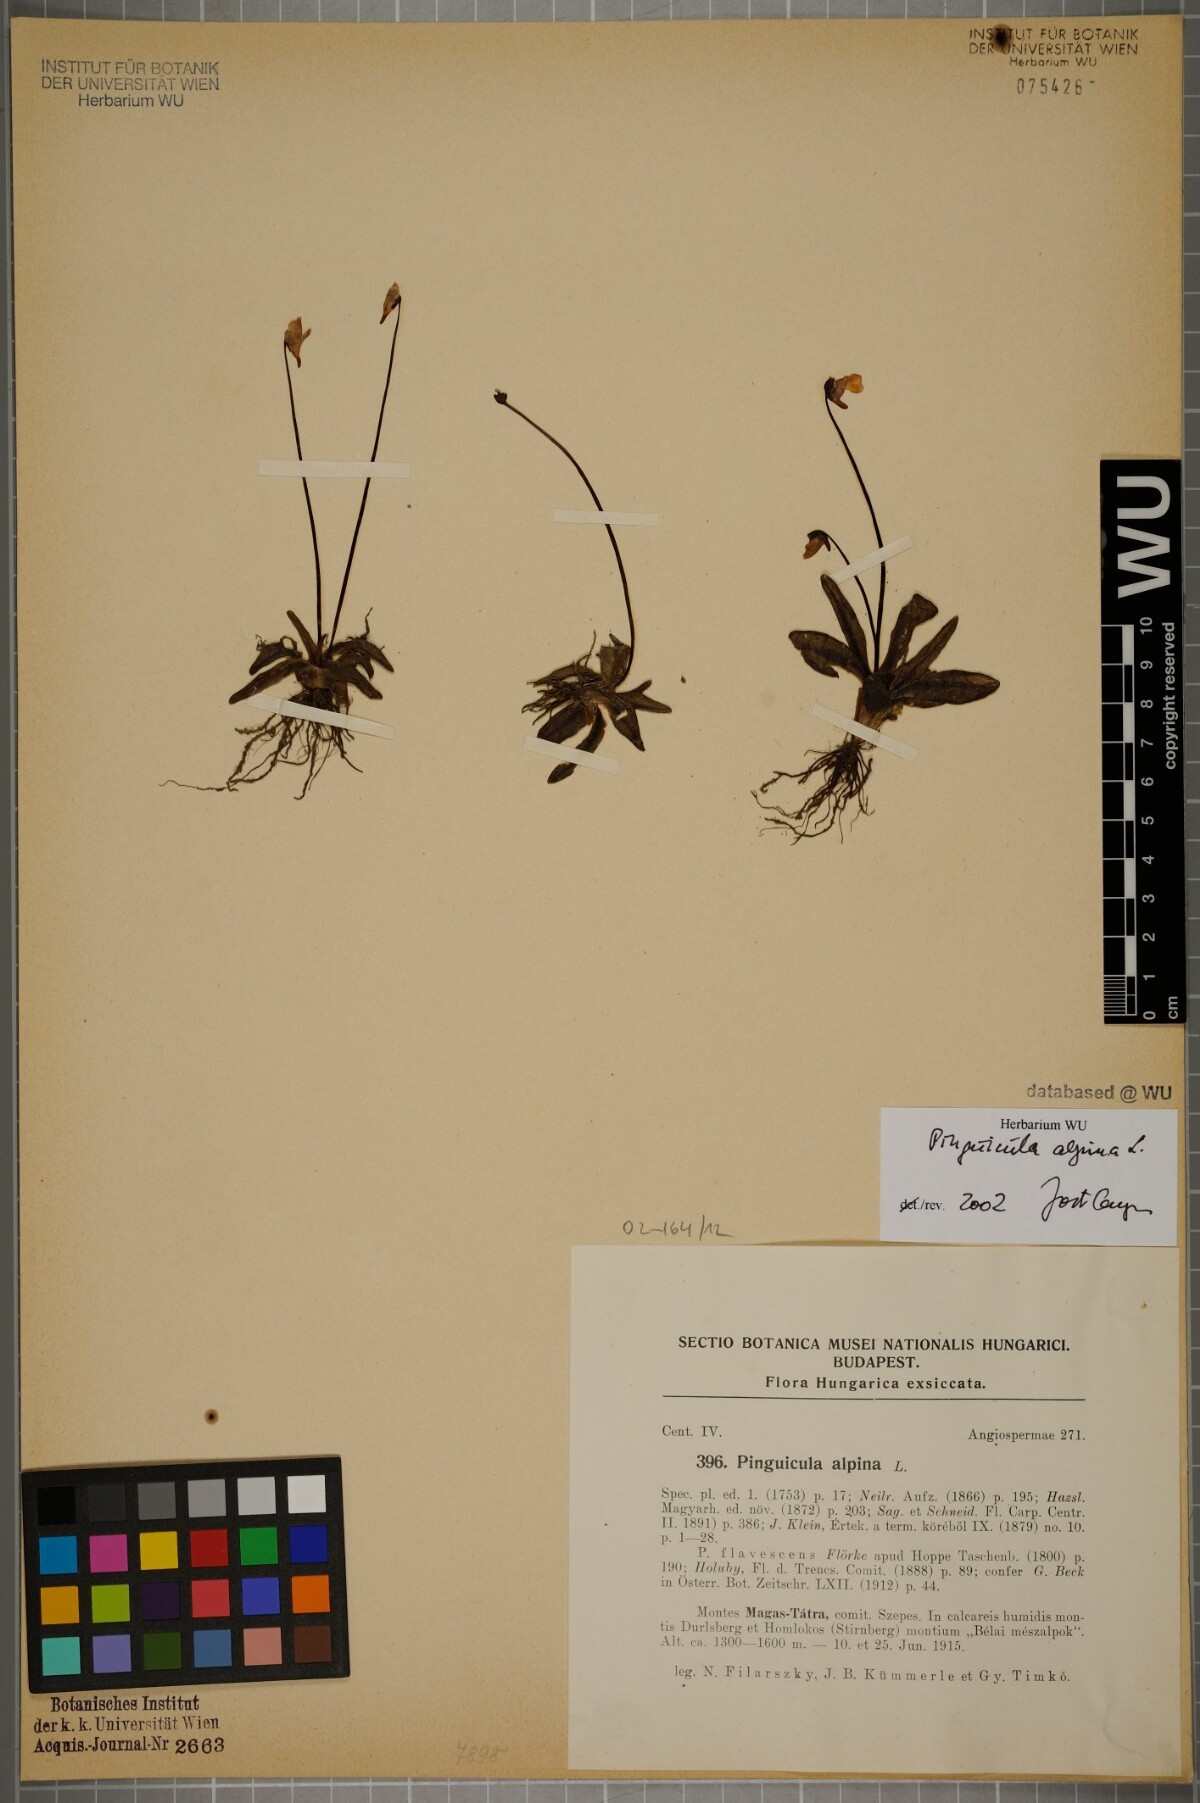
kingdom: Plantae
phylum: Tracheophyta
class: Magnoliopsida
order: Lamiales
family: Lentibulariaceae
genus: Pinguicula
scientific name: Pinguicula alpina
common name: Alpine butterwort
